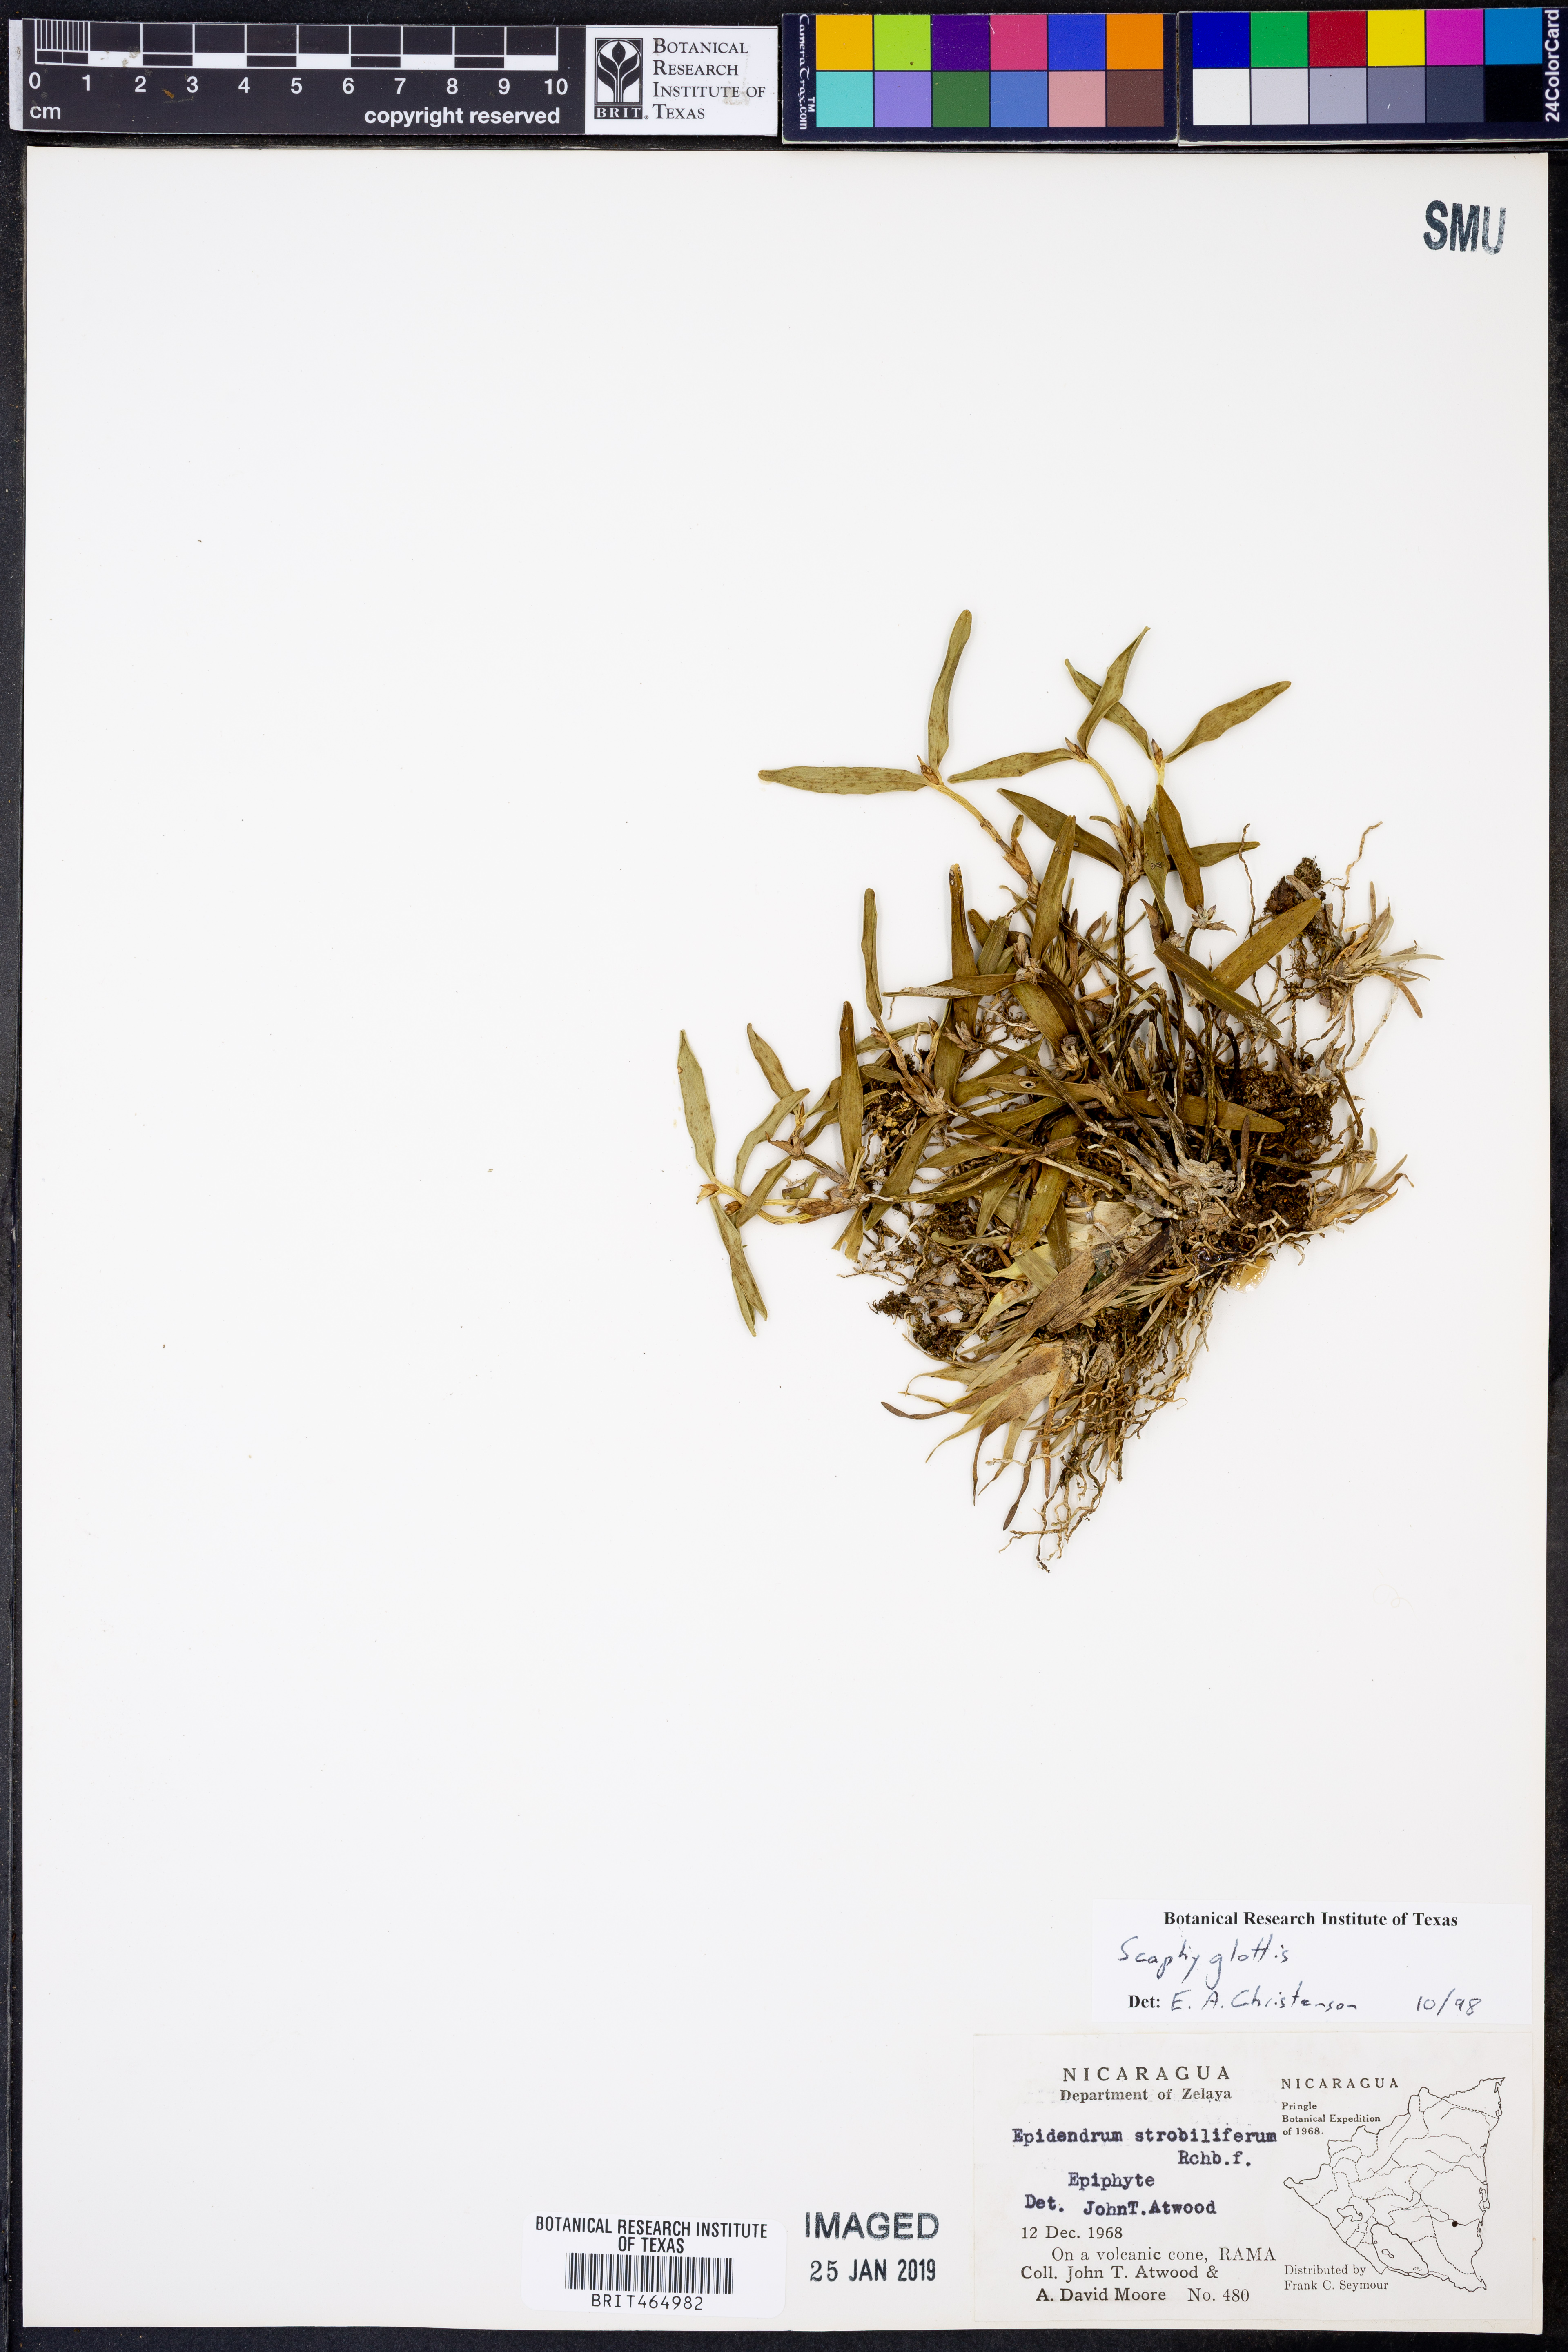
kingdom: Plantae
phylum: Tracheophyta
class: Liliopsida
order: Asparagales
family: Orchidaceae
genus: Scaphyglottis
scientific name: Scaphyglottis
